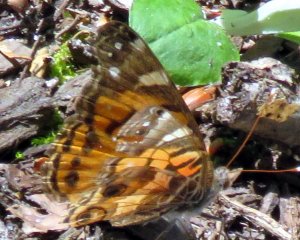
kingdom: Animalia
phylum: Arthropoda
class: Insecta
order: Lepidoptera
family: Nymphalidae
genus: Vanessa
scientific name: Vanessa virginiensis
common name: American Lady
